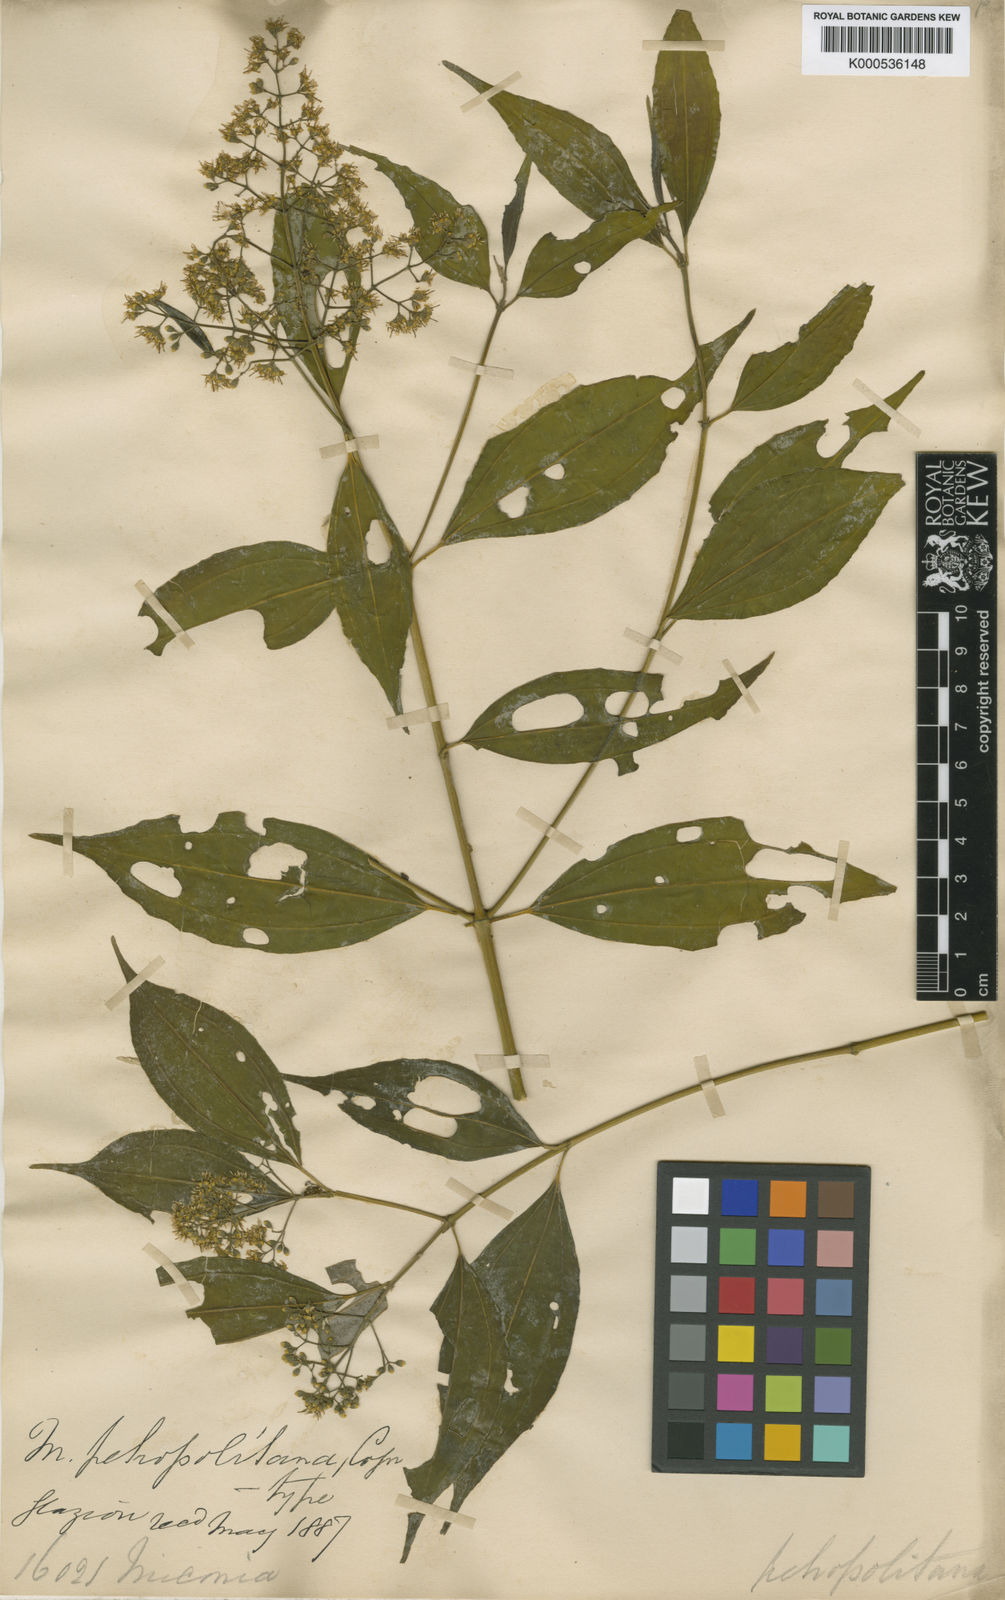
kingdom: Plantae
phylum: Tracheophyta
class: Magnoliopsida
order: Myrtales
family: Melastomataceae
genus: Miconia
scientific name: Miconia petropolitana
